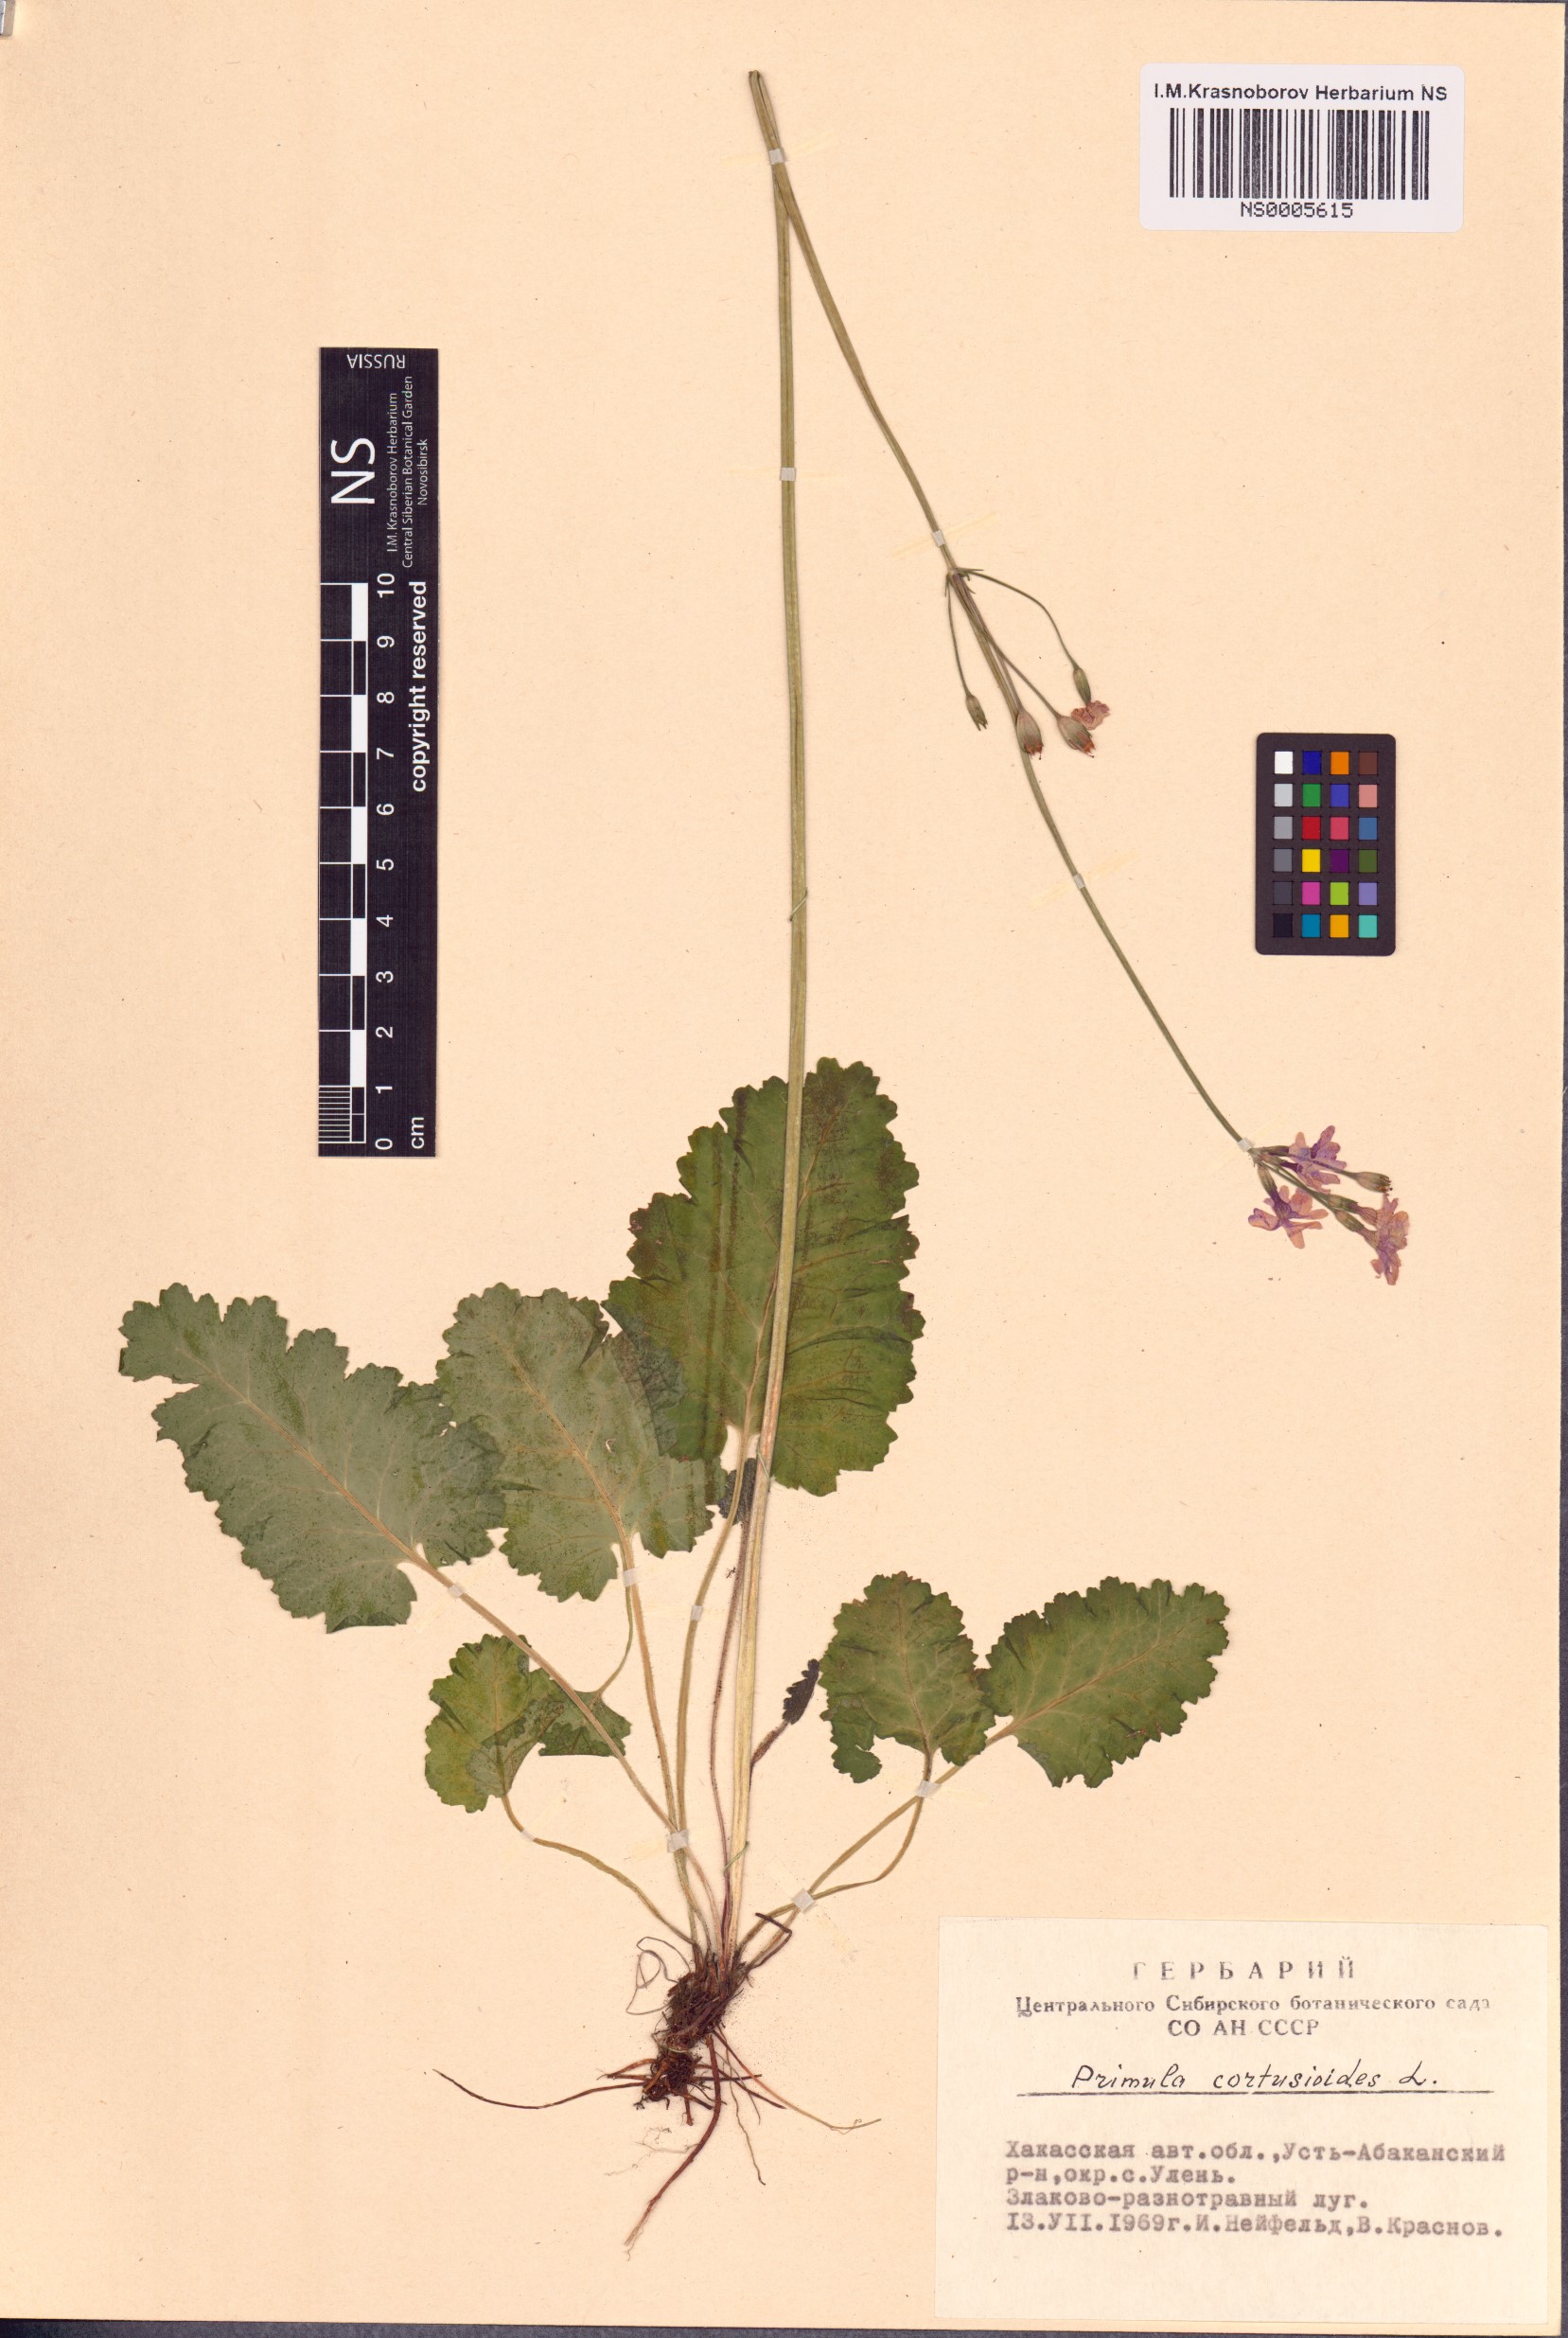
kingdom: Plantae
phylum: Tracheophyta
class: Magnoliopsida
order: Ericales
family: Primulaceae
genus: Primula
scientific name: Primula cortusoides
